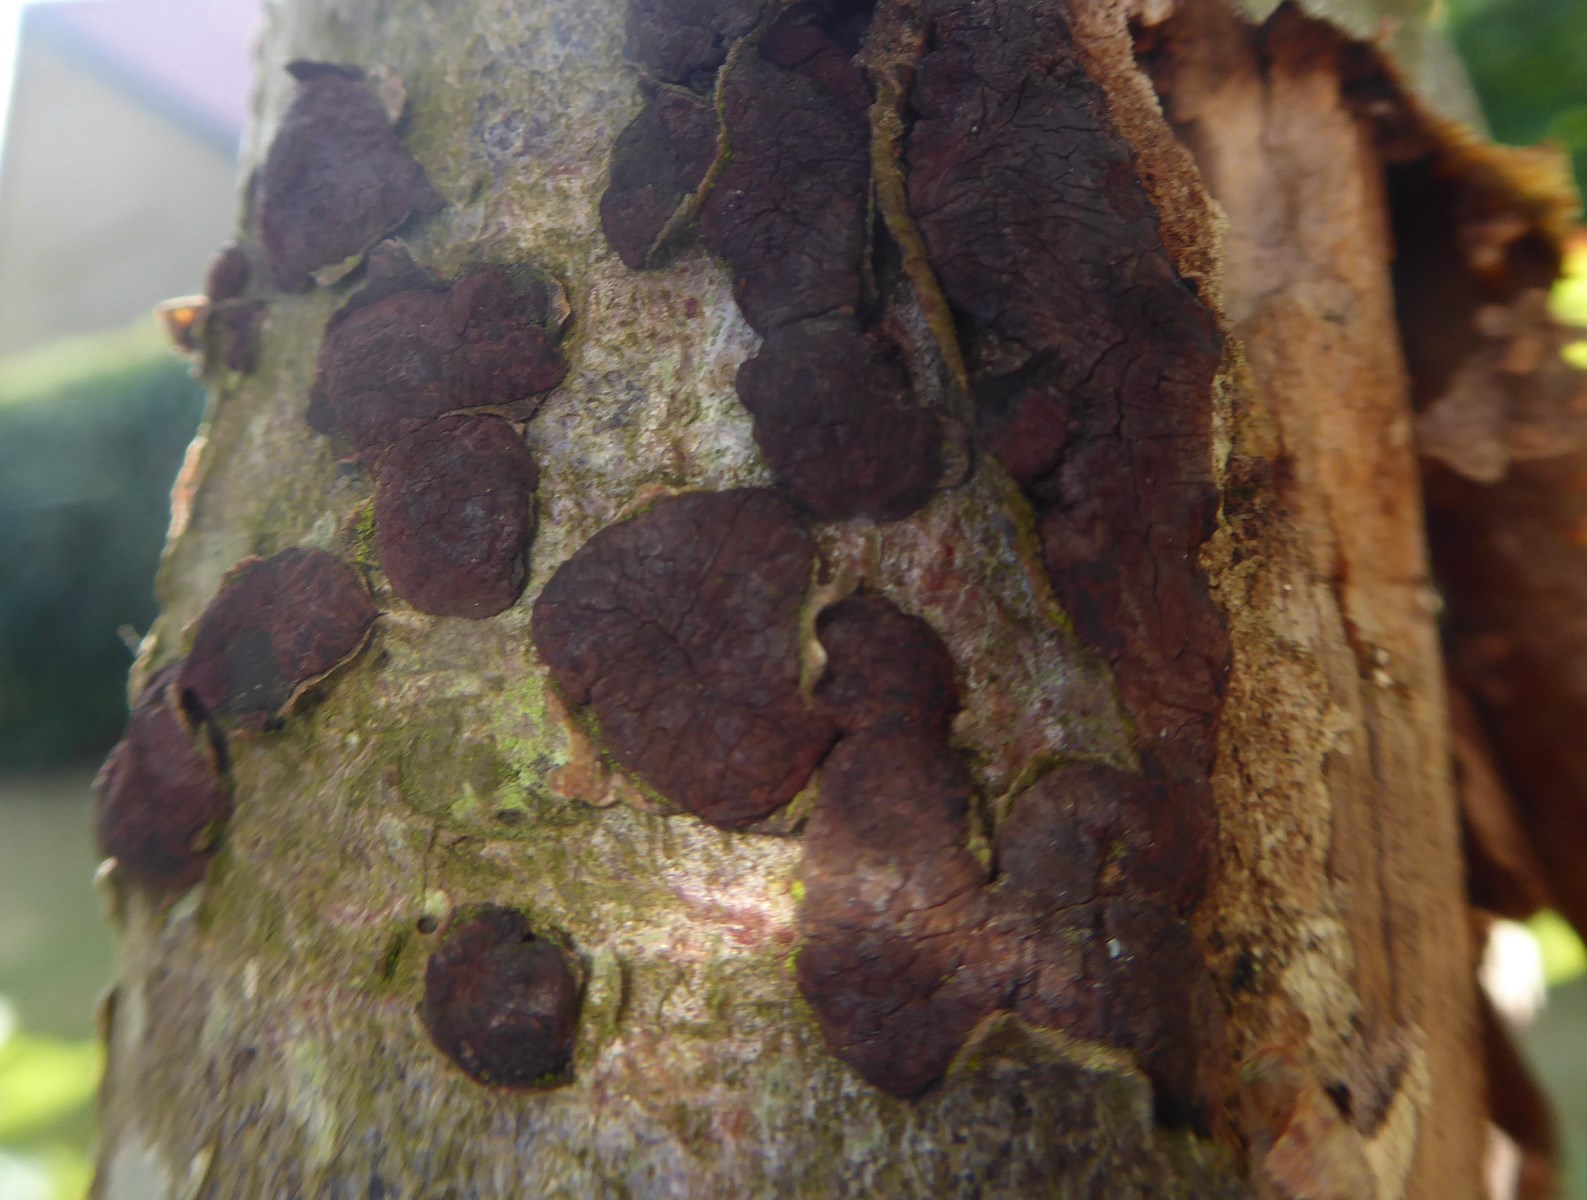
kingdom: Fungi
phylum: Ascomycota
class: Sordariomycetes
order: Xylariales
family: Hypoxylaceae
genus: Jackrogersella
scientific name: Jackrogersella multiformis
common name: foranderlig kulbær
